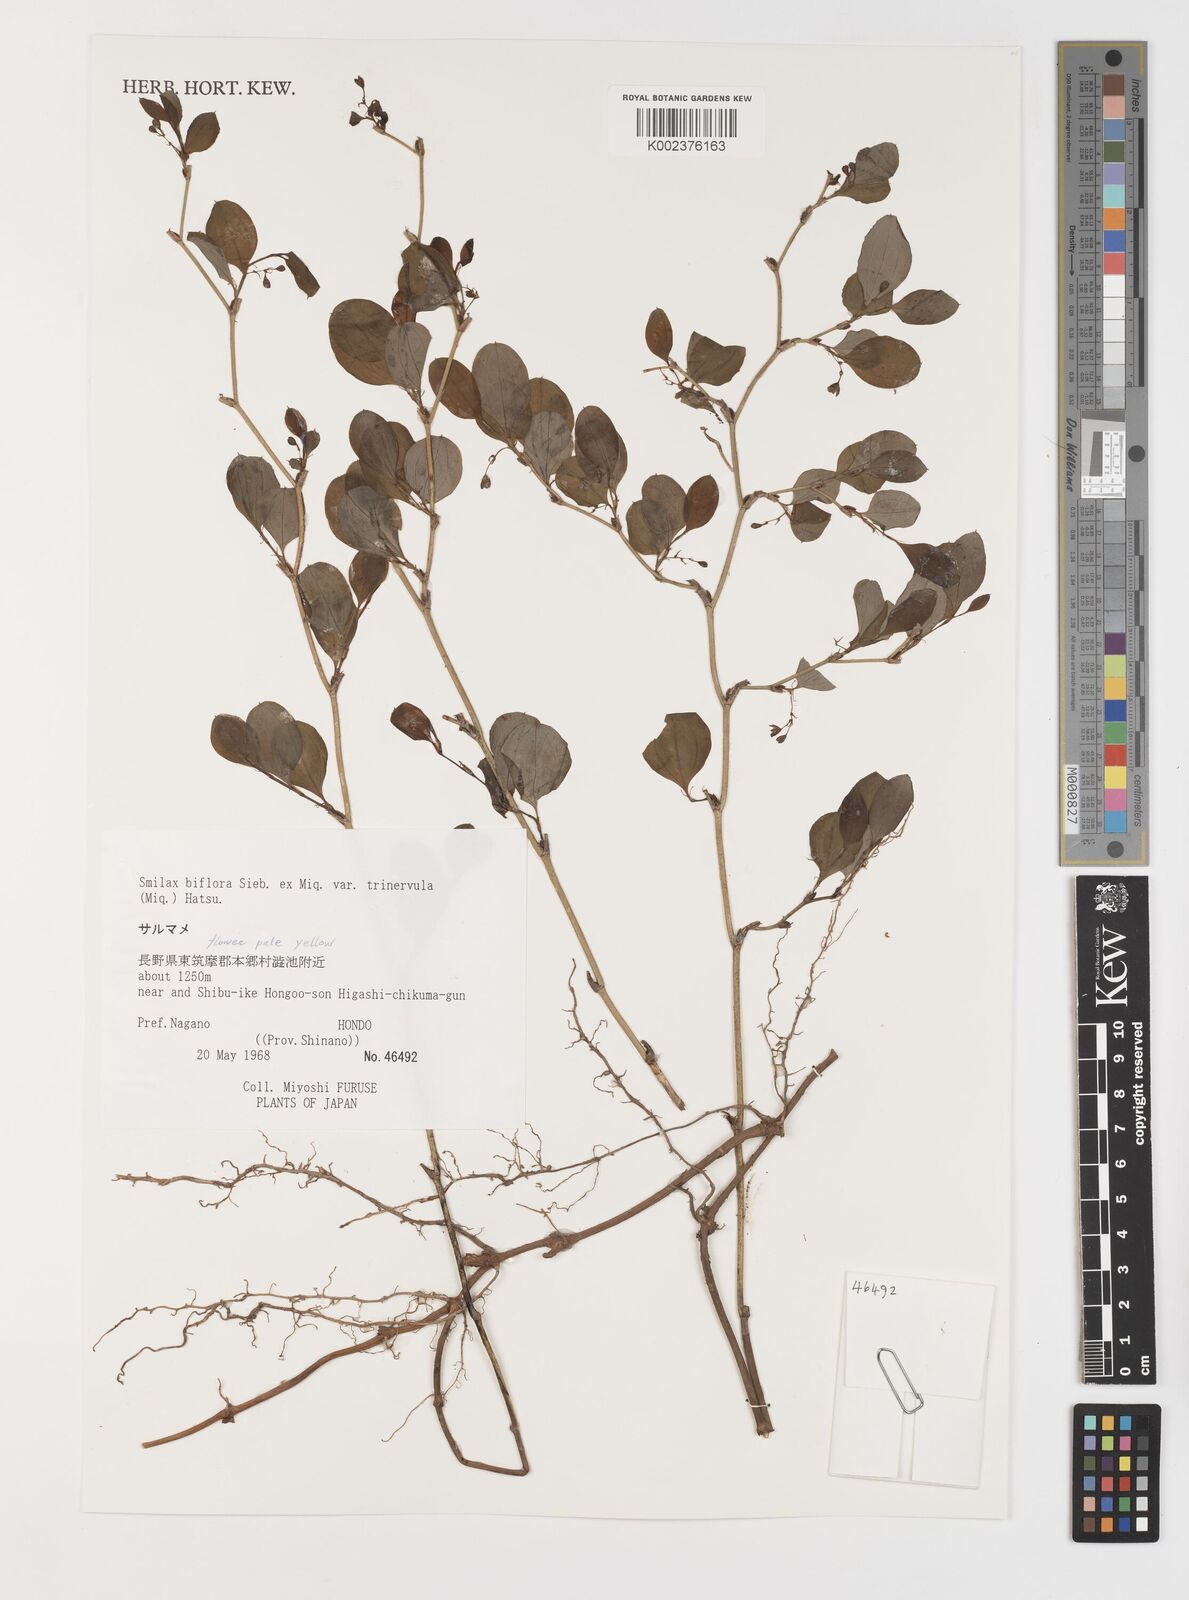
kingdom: Plantae
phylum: Tracheophyta
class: Liliopsida
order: Liliales
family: Smilacaceae
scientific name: Smilacaceae
